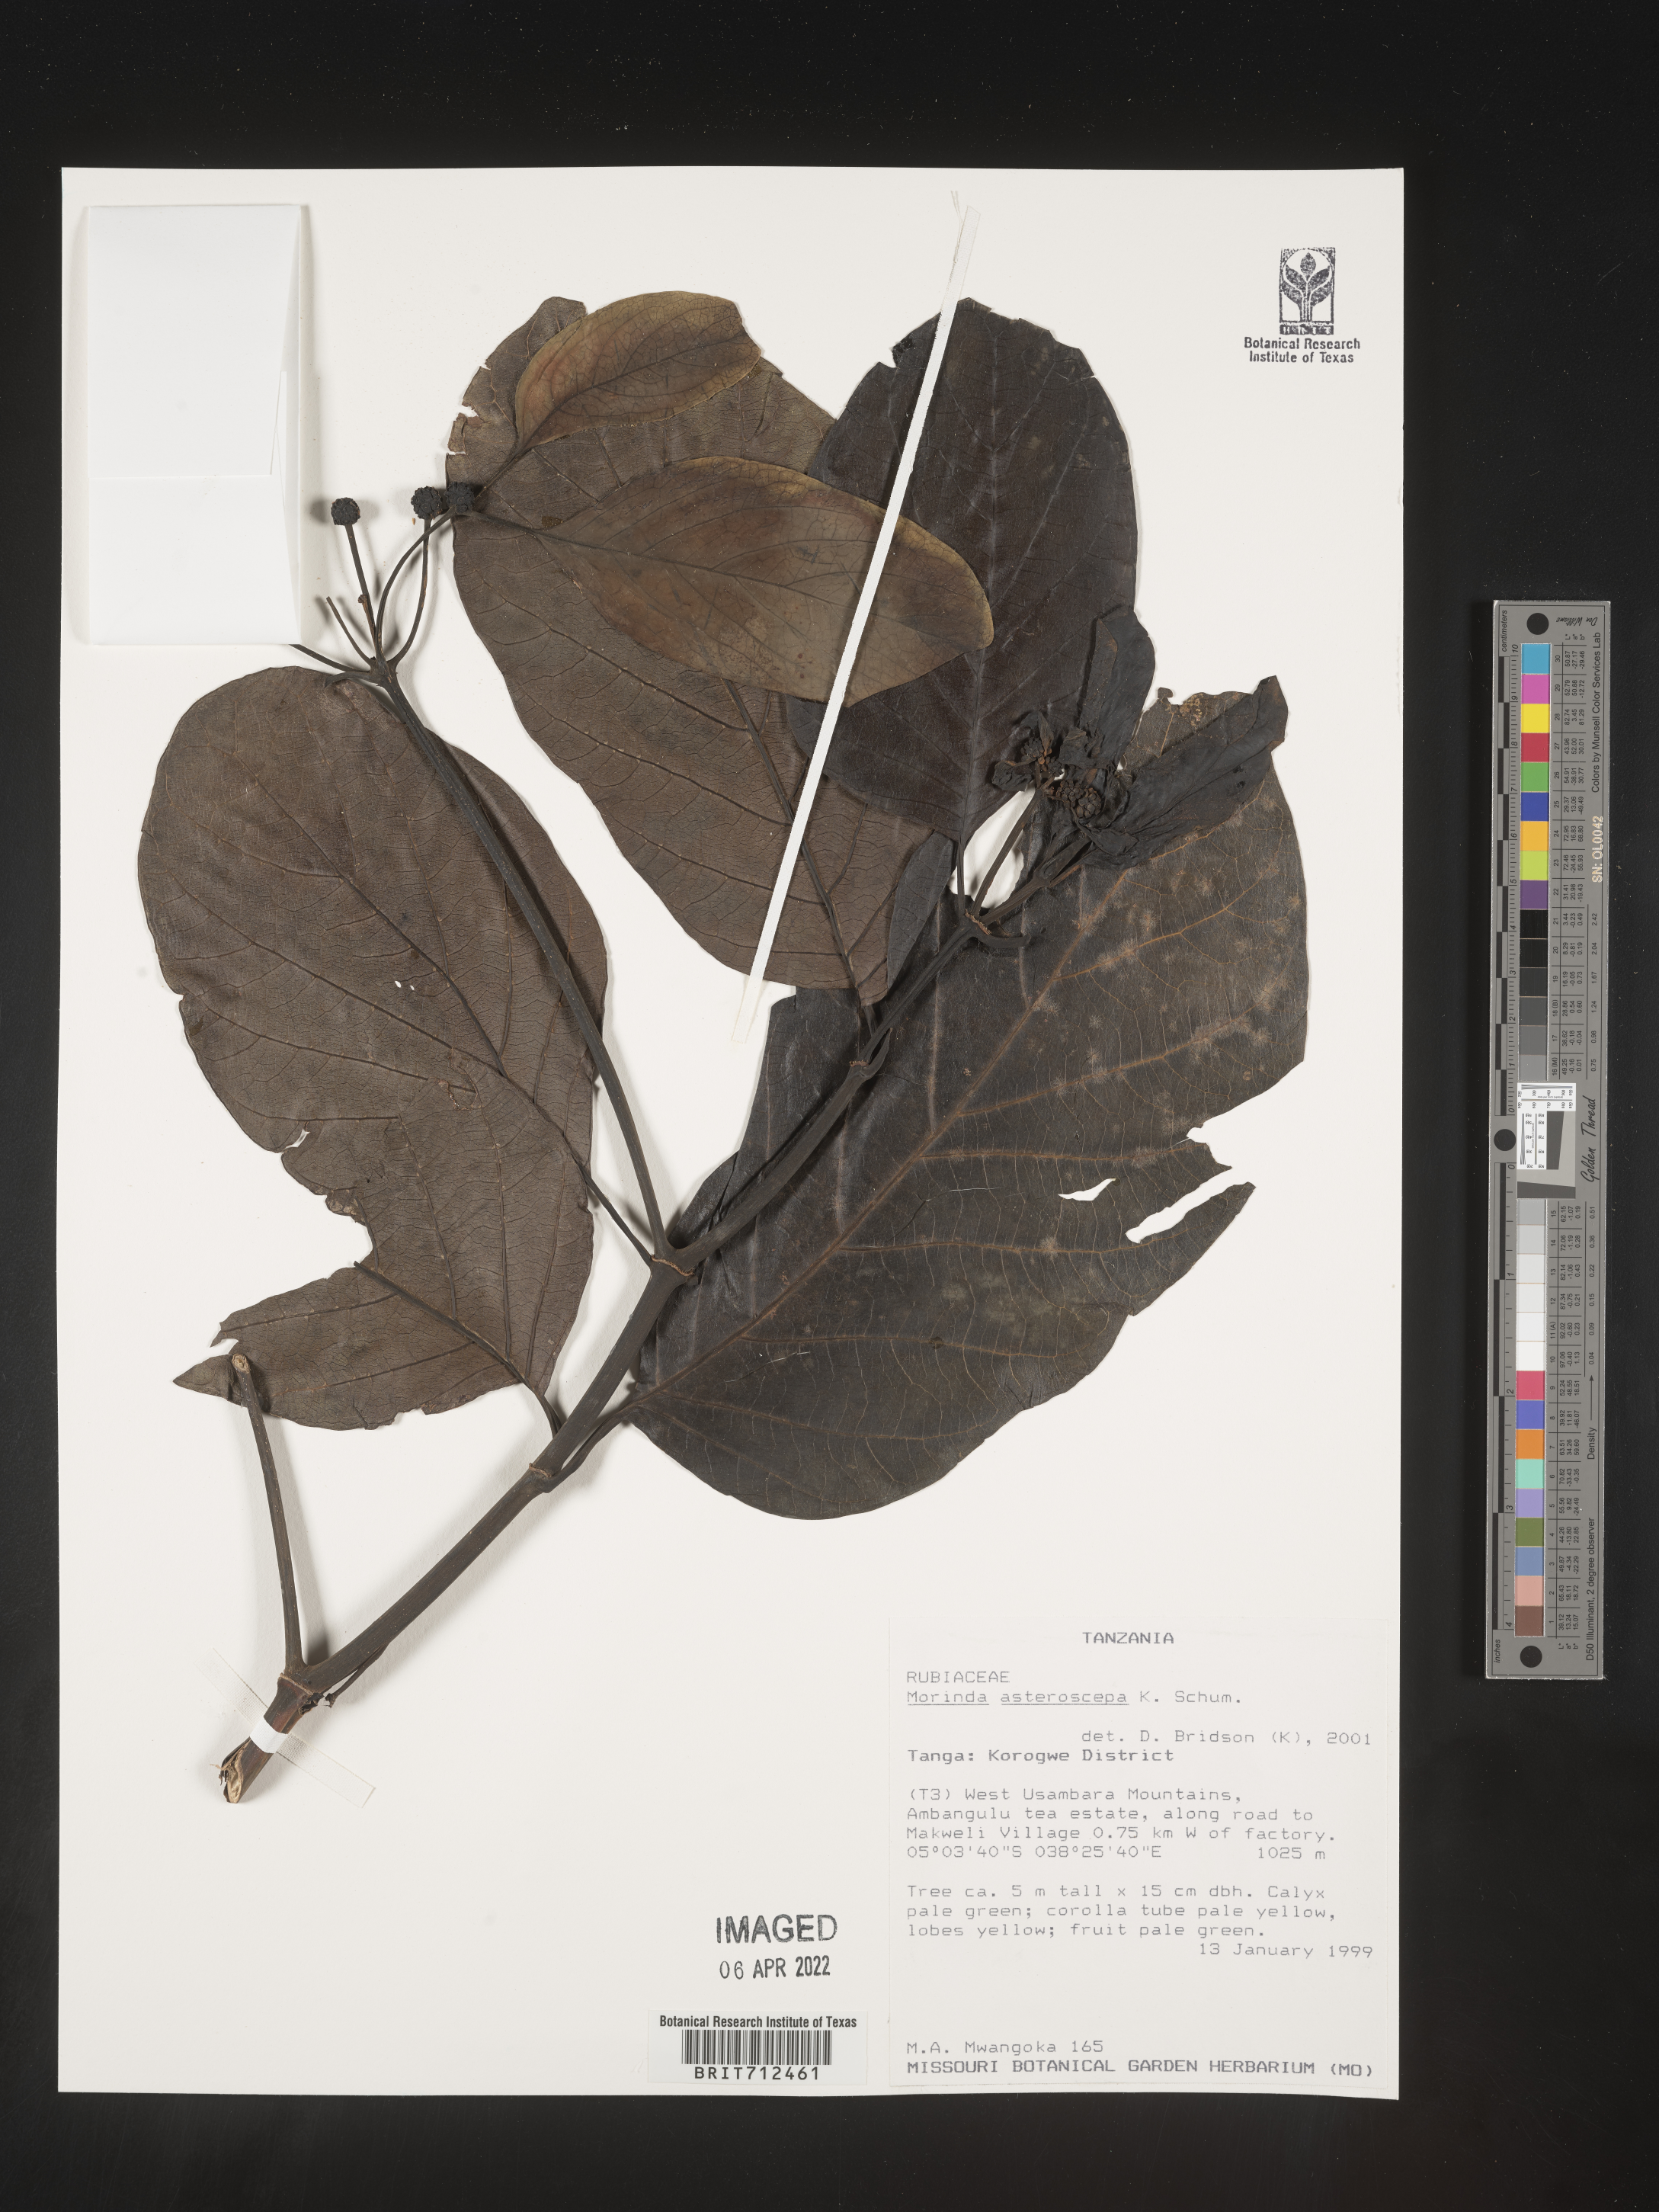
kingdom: Plantae
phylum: Tracheophyta
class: Magnoliopsida
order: Gentianales
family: Rubiaceae
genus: Morinda
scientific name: Morinda
